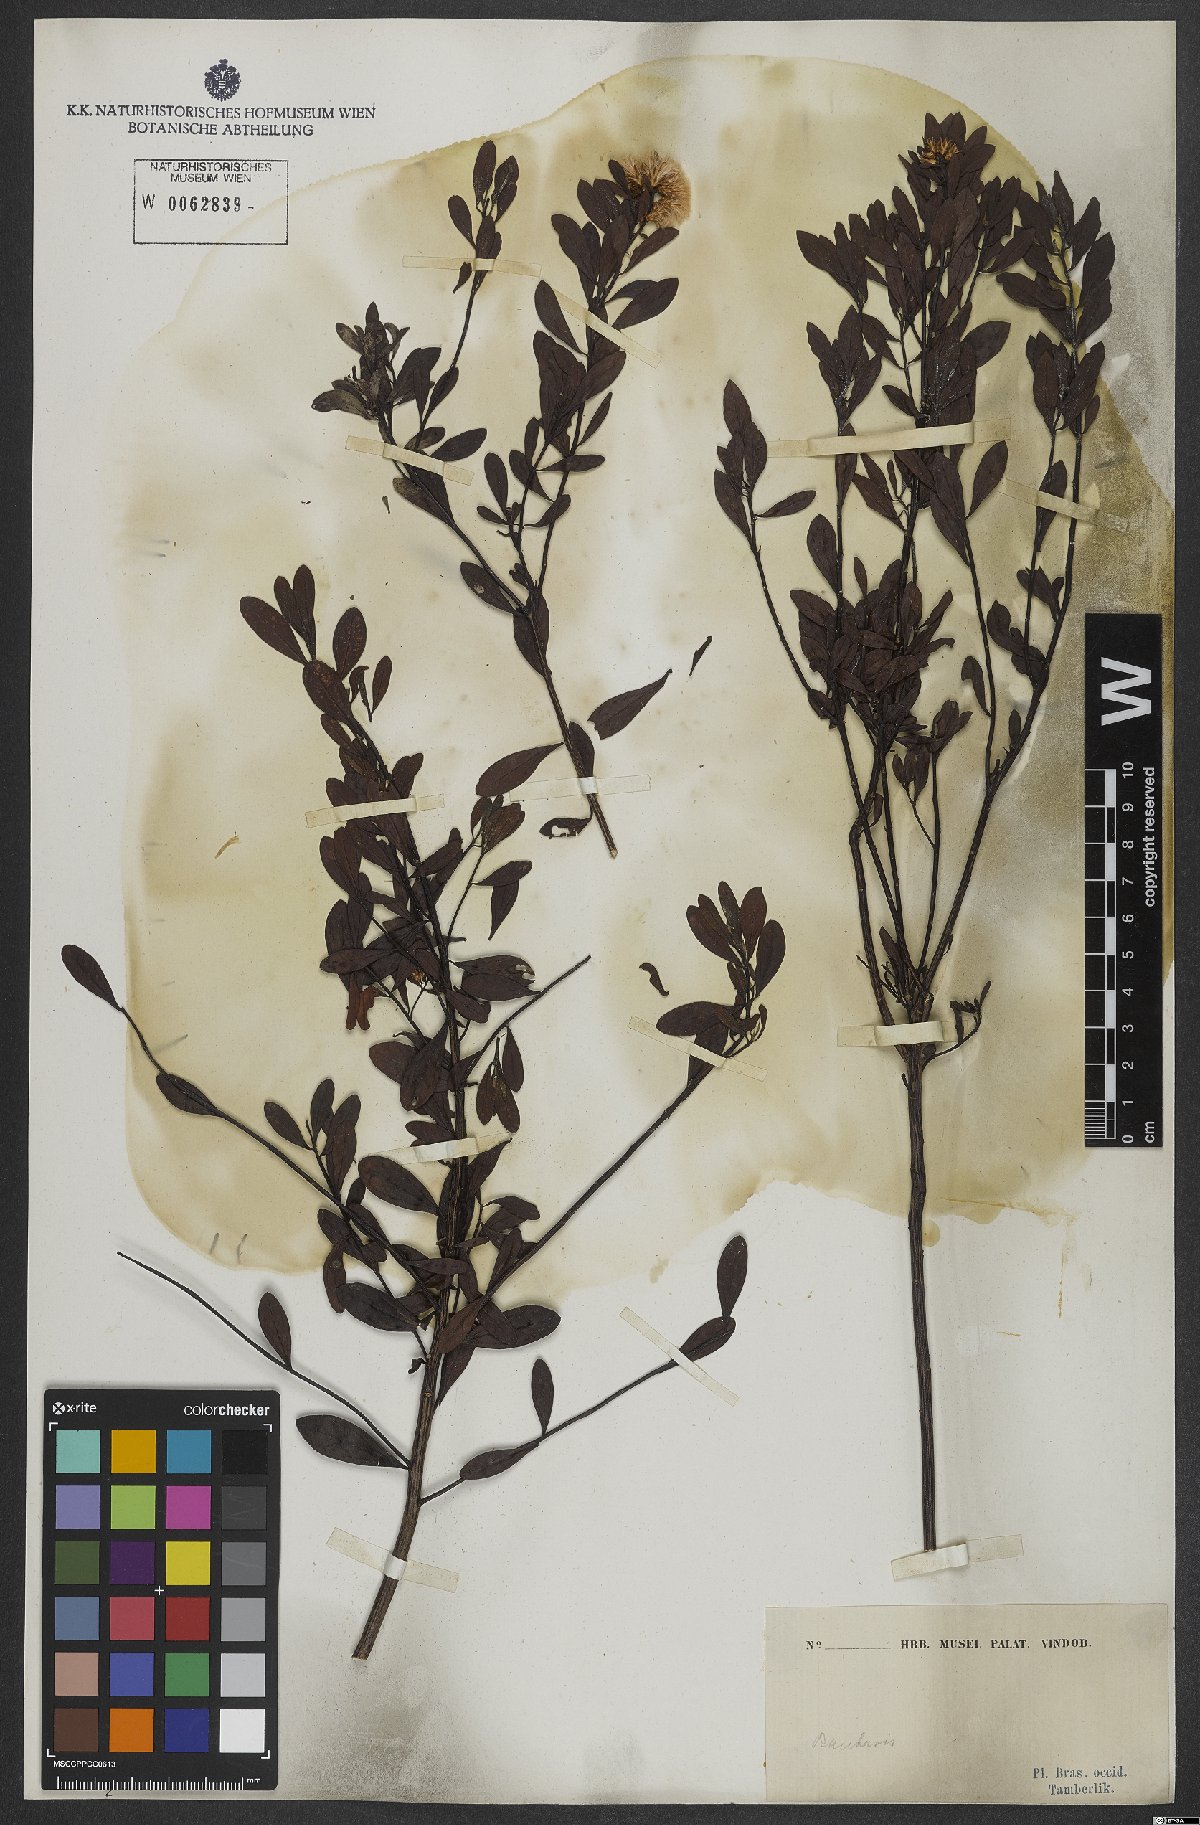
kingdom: Plantae
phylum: Tracheophyta
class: Magnoliopsida
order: Asterales
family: Asteraceae
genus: Baccharis
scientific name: Baccharis
